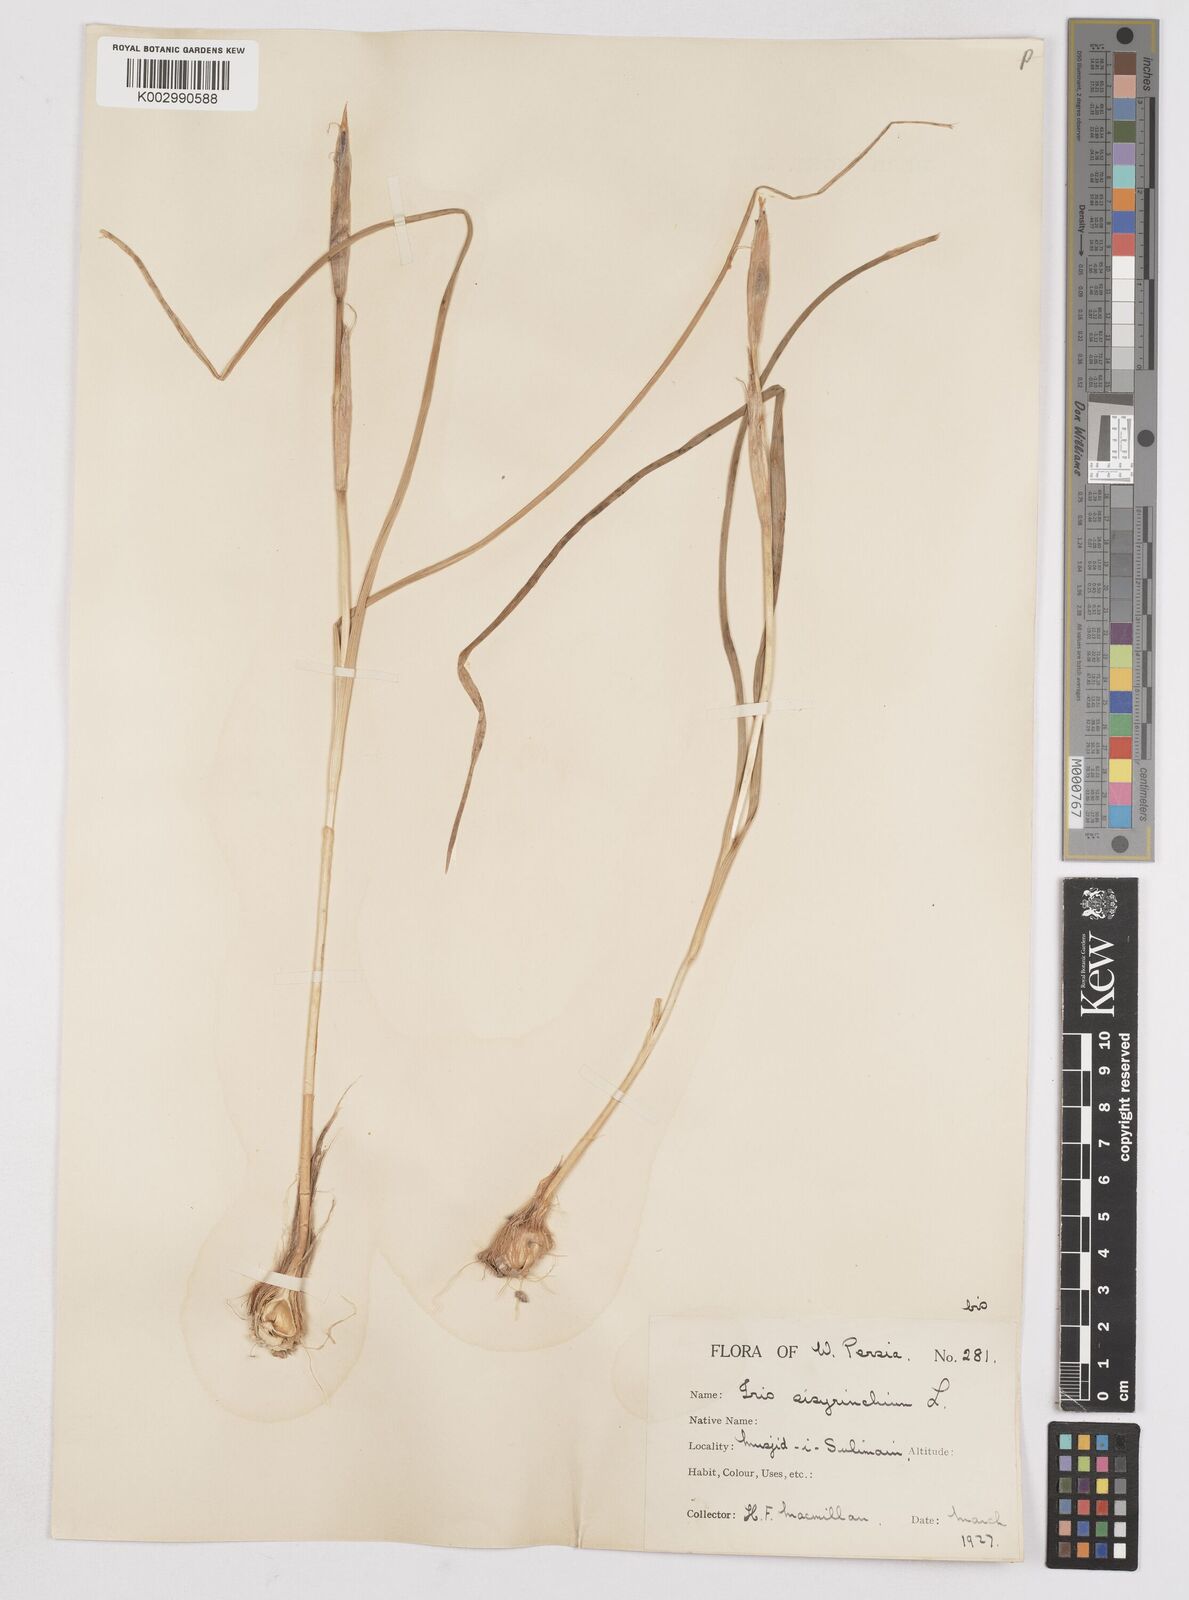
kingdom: Plantae
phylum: Tracheophyta
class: Liliopsida
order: Asparagales
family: Iridaceae
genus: Moraea
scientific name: Moraea sisyrinchium
